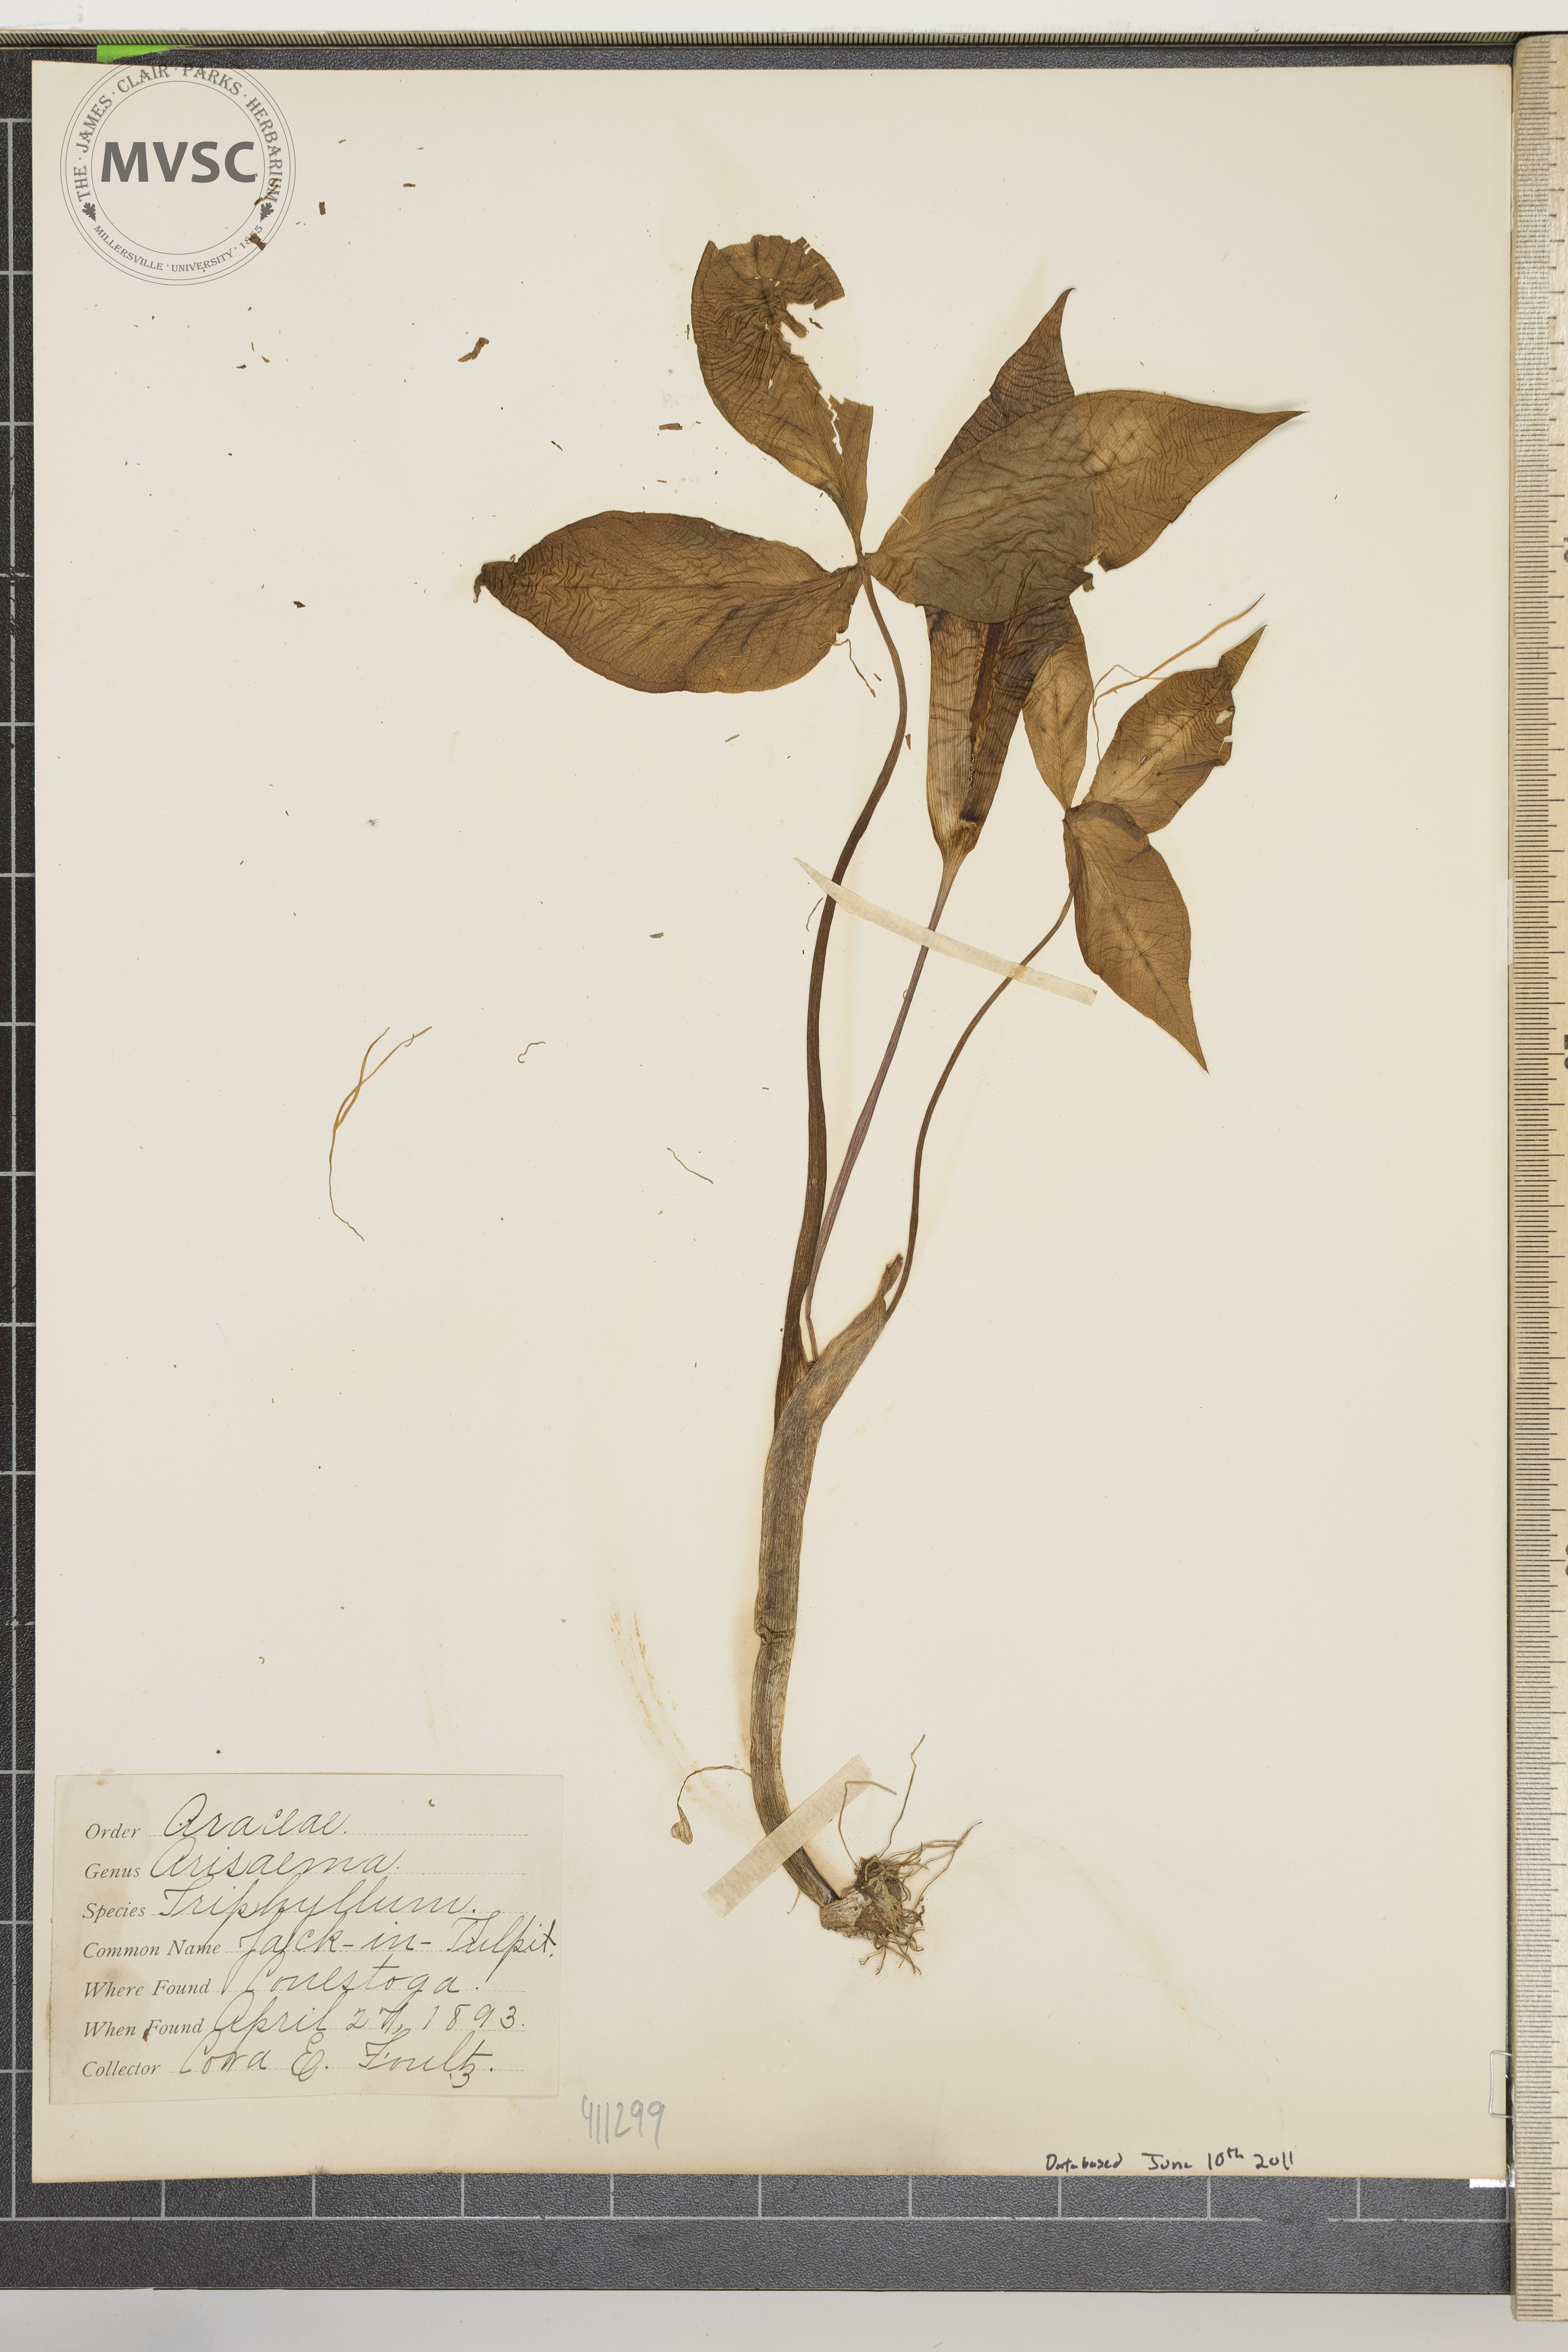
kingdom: Plantae
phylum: Tracheophyta
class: Liliopsida
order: Alismatales
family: Araceae
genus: Arisaema
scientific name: Arisaema triphyllum
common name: Jack in the pulpit
